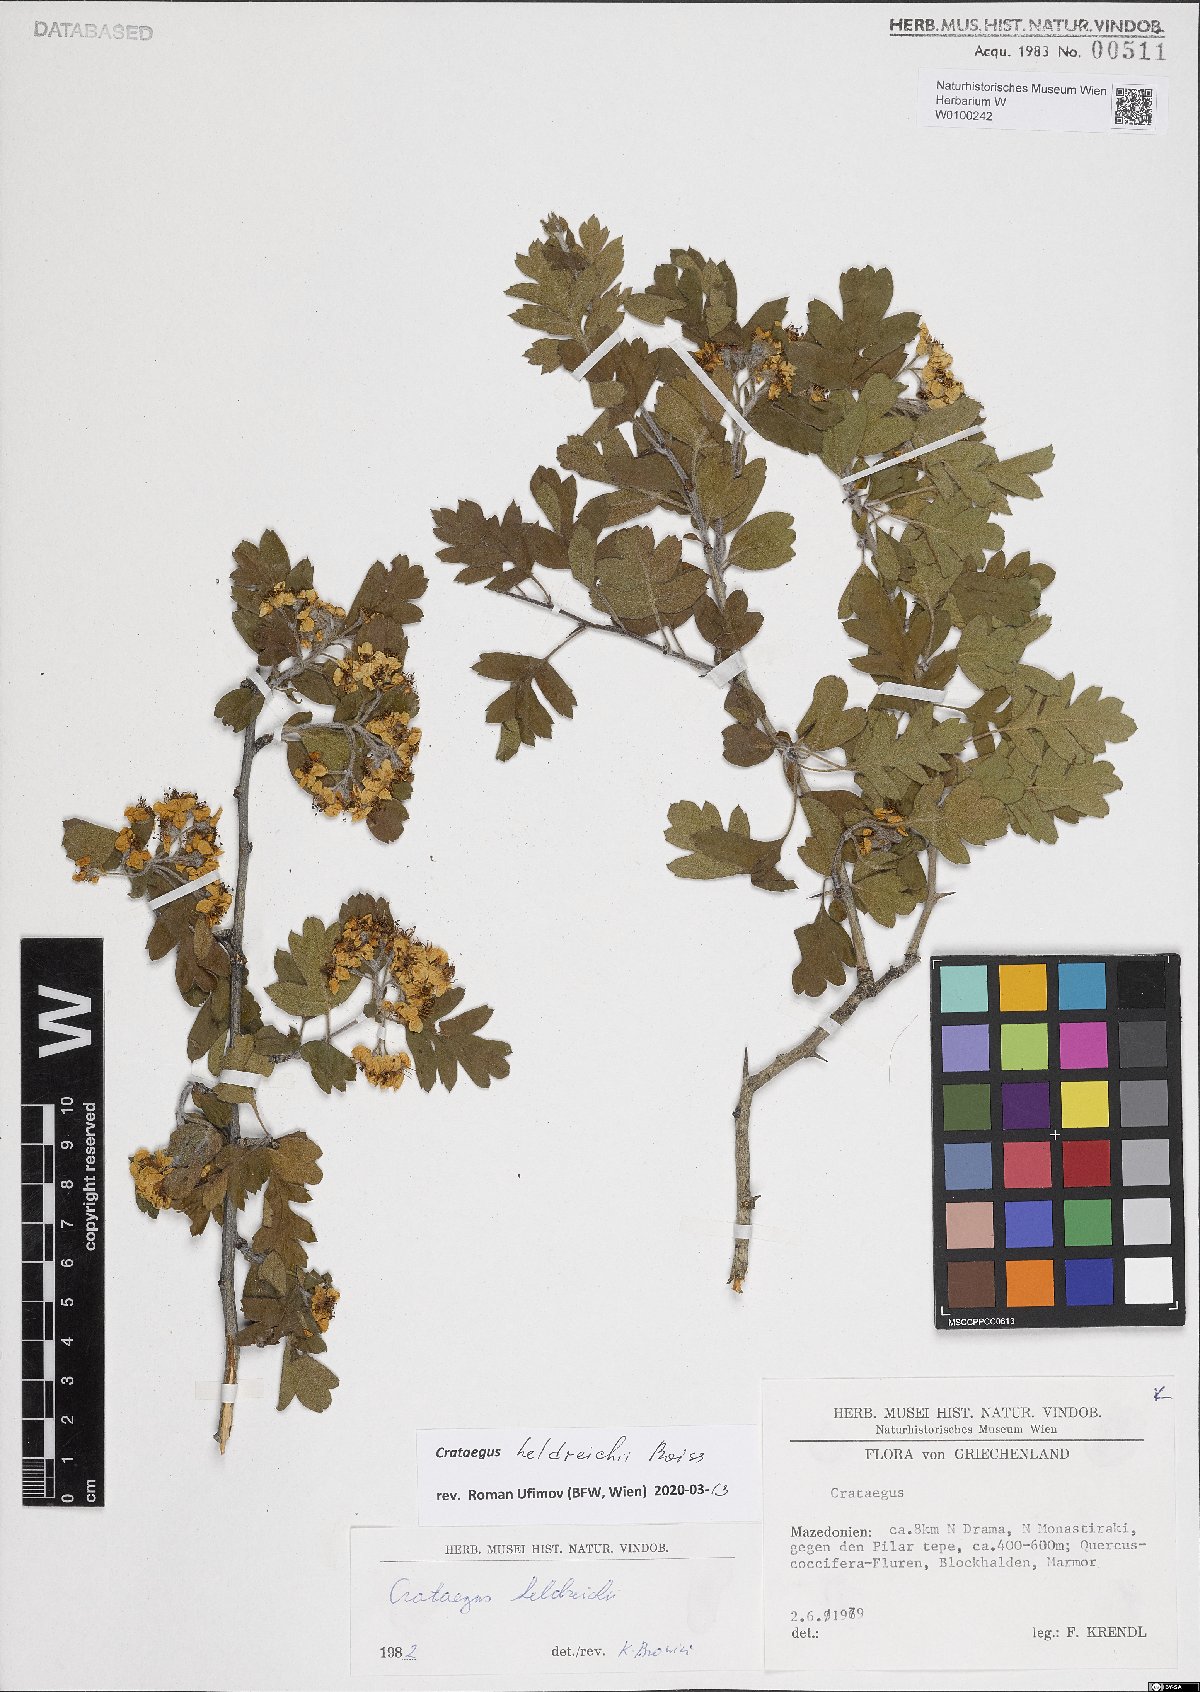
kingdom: Plantae
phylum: Tracheophyta
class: Magnoliopsida
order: Rosales
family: Rosaceae
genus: Crataegus
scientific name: Crataegus heldreichii
